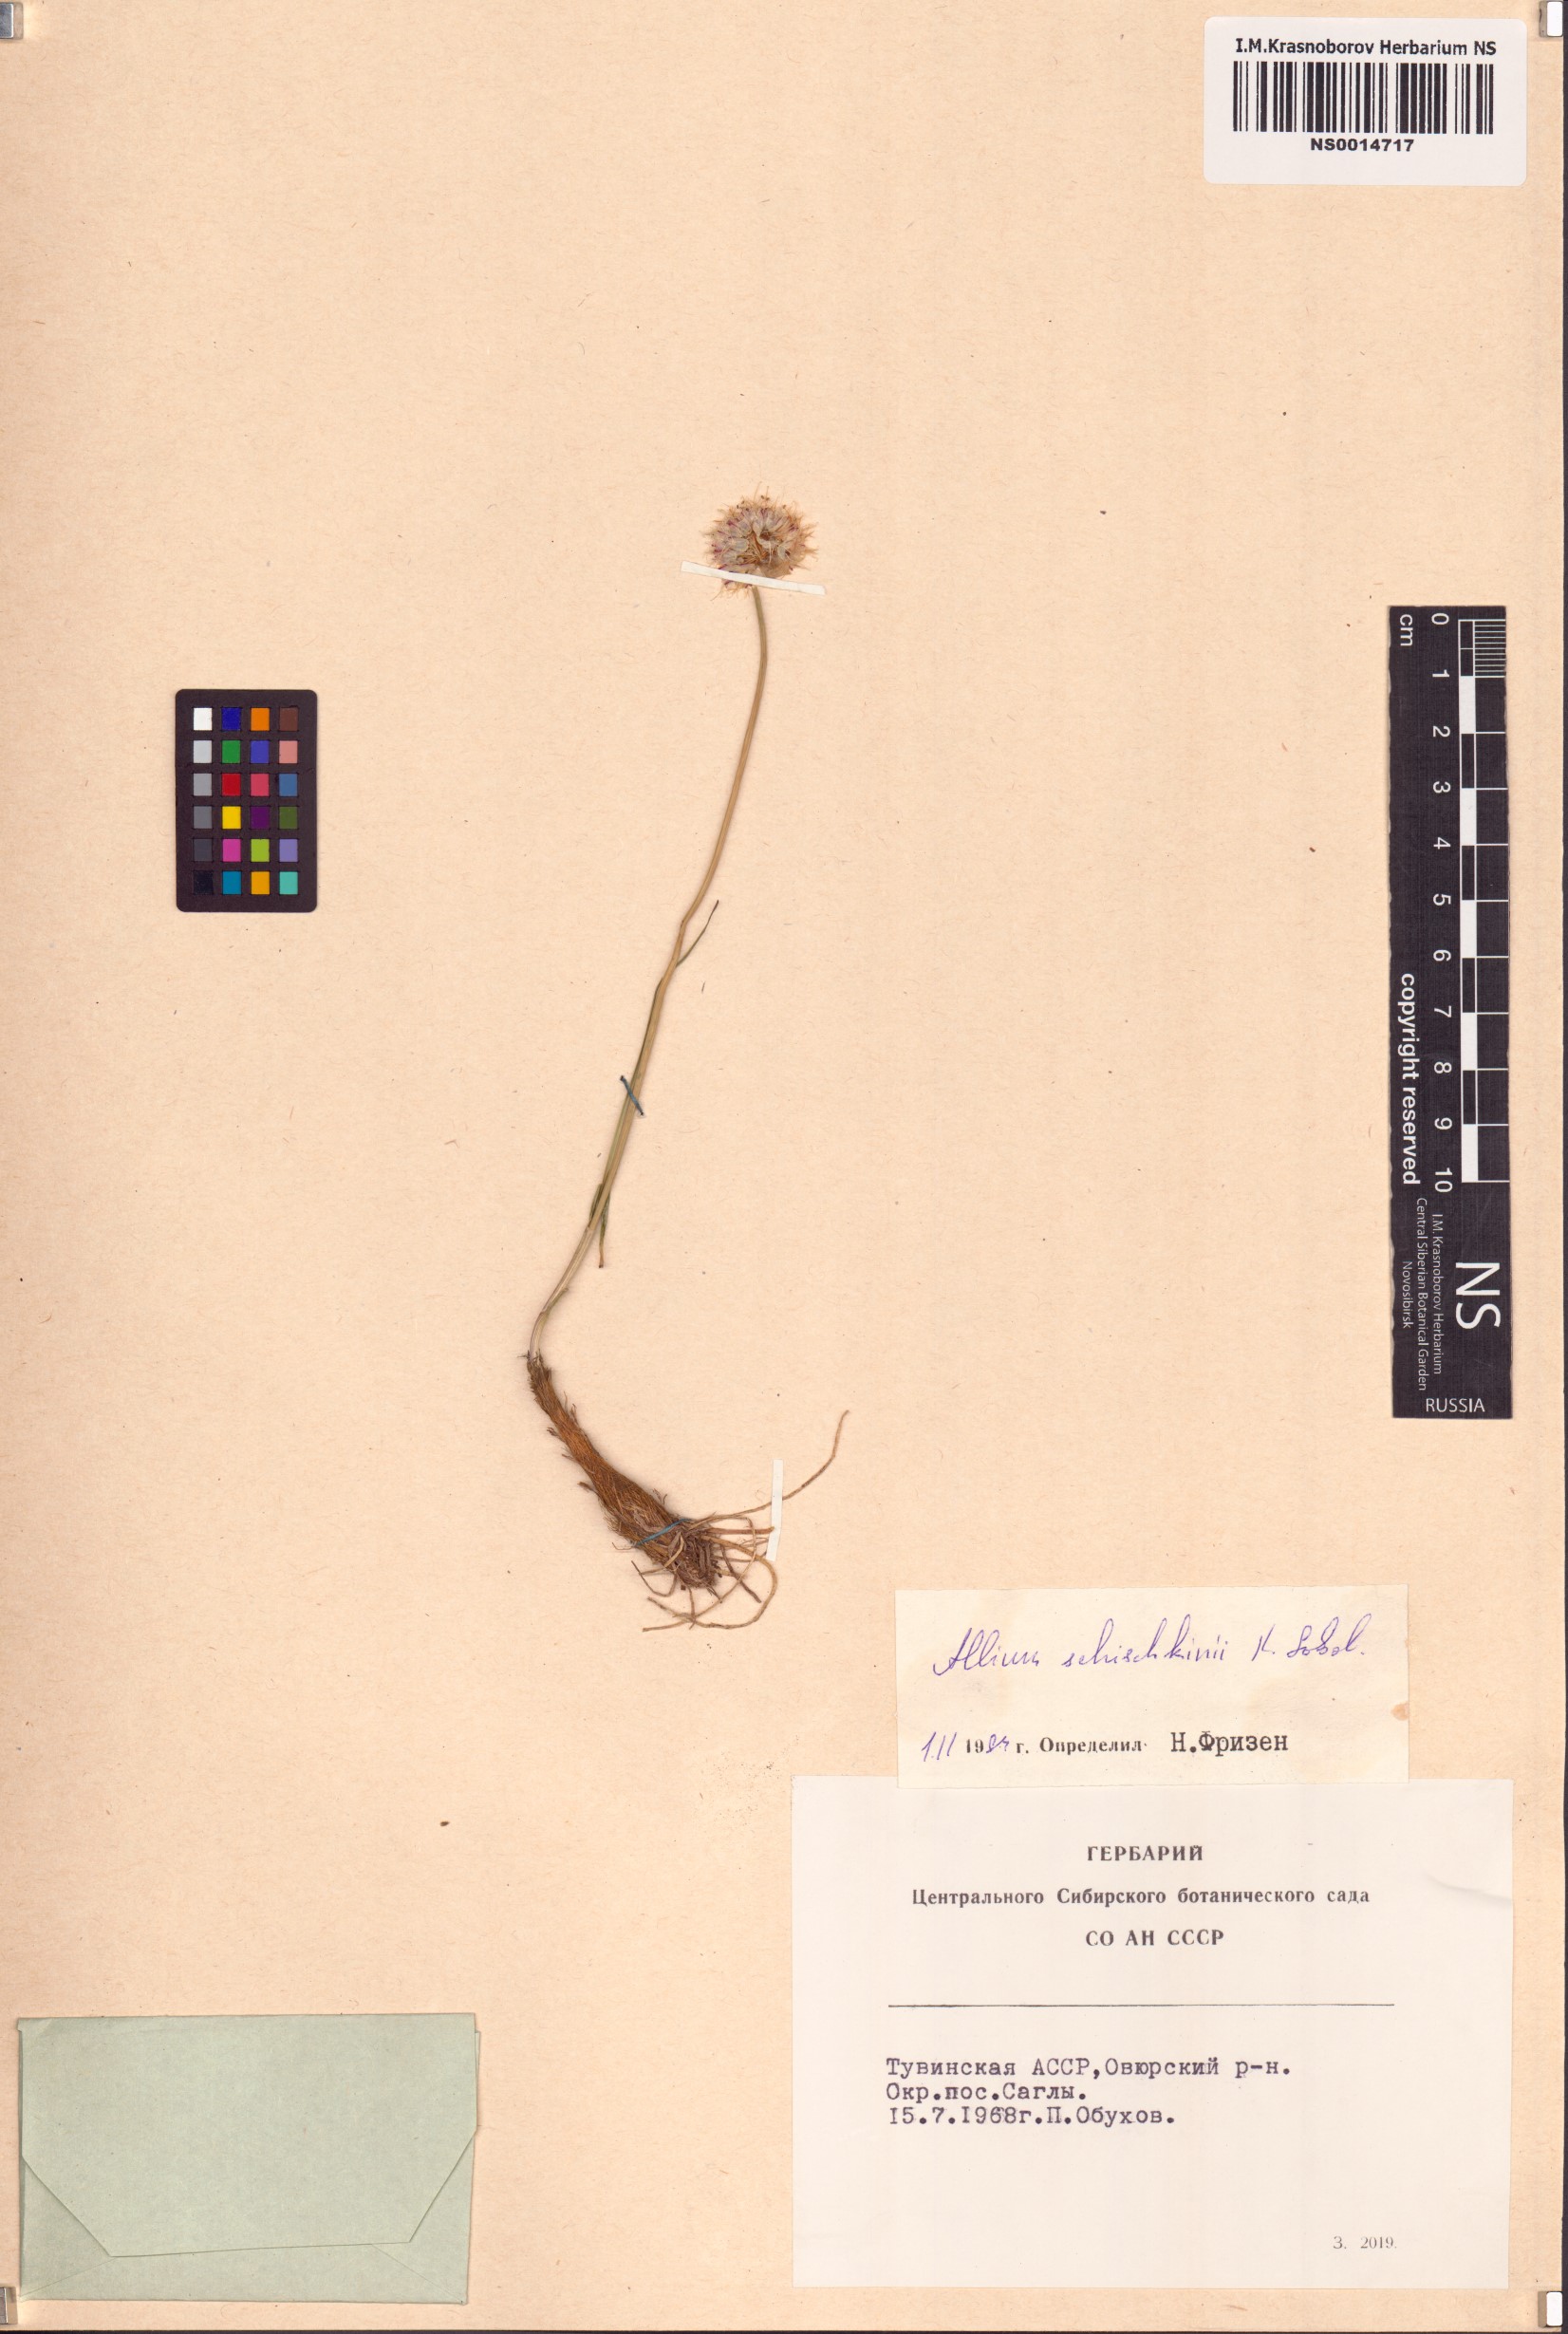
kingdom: Plantae
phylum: Tracheophyta
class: Liliopsida
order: Asparagales
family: Amaryllidaceae
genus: Allium
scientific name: Allium schischkinii
